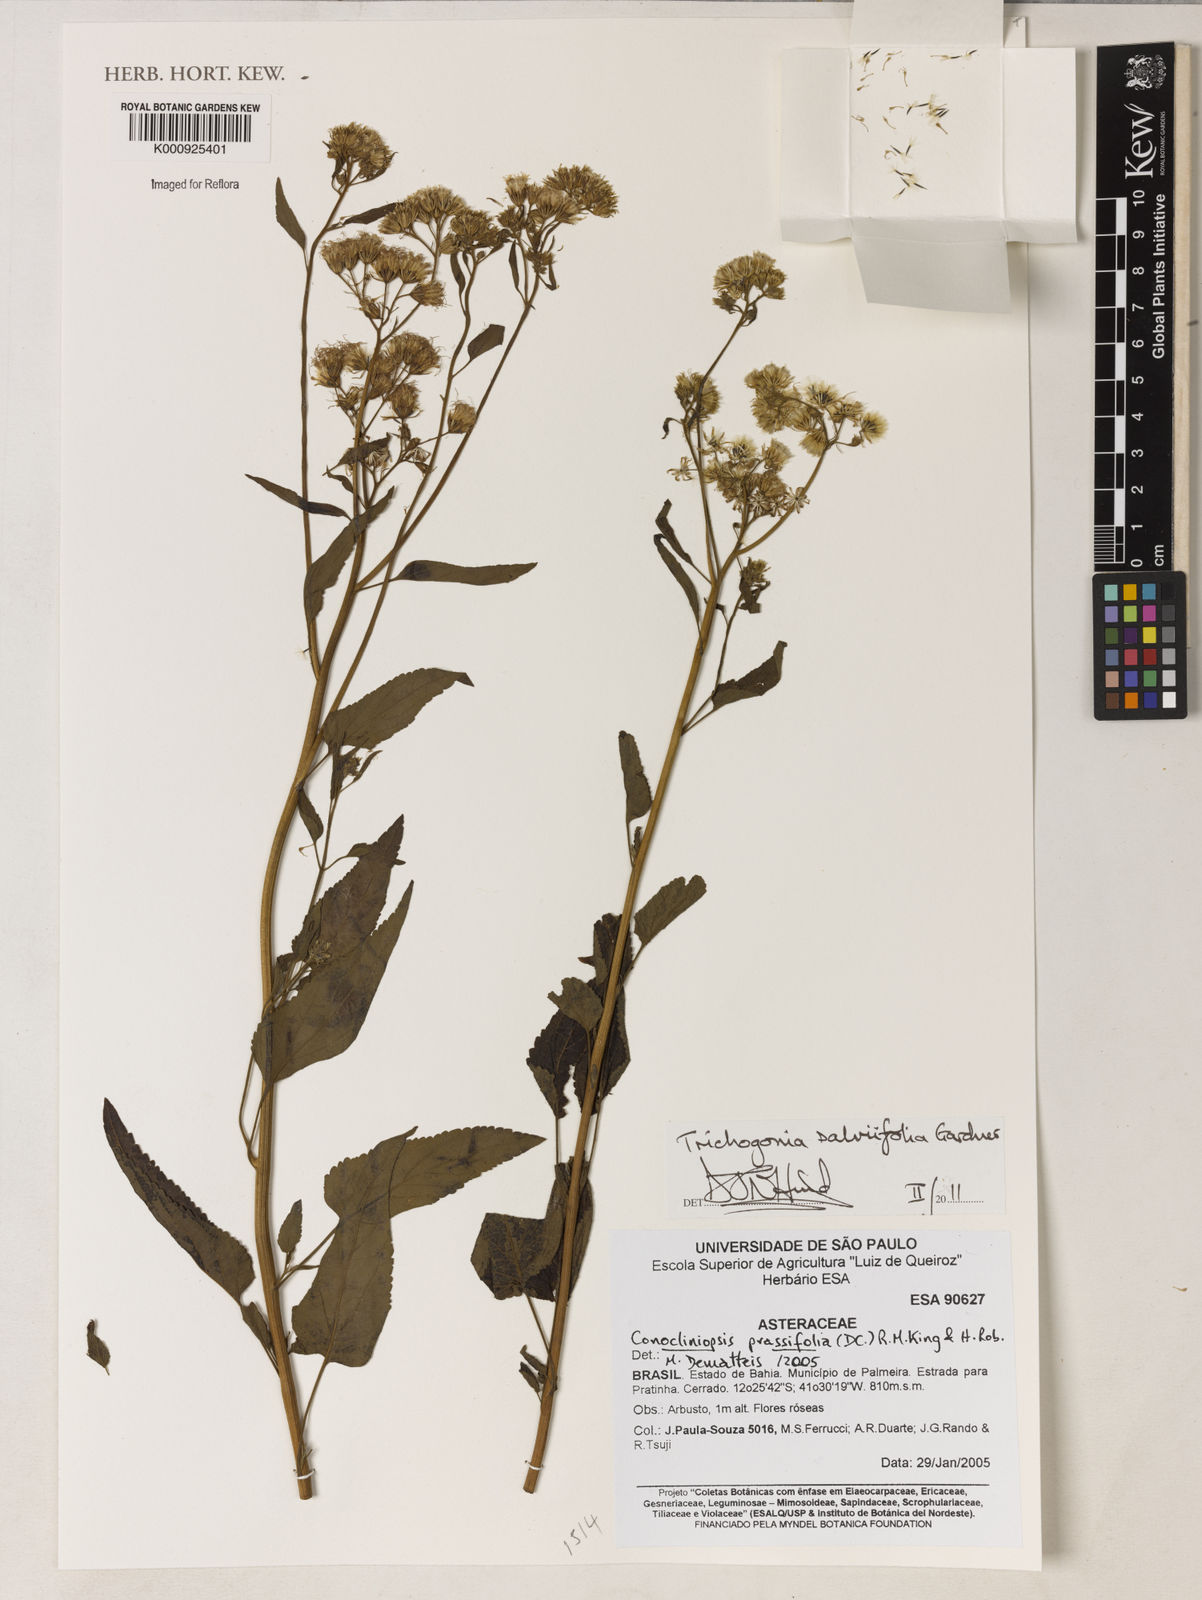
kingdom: Plantae
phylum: Tracheophyta
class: Magnoliopsida
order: Asterales
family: Asteraceae
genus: Trichogonia
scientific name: Trichogonia
